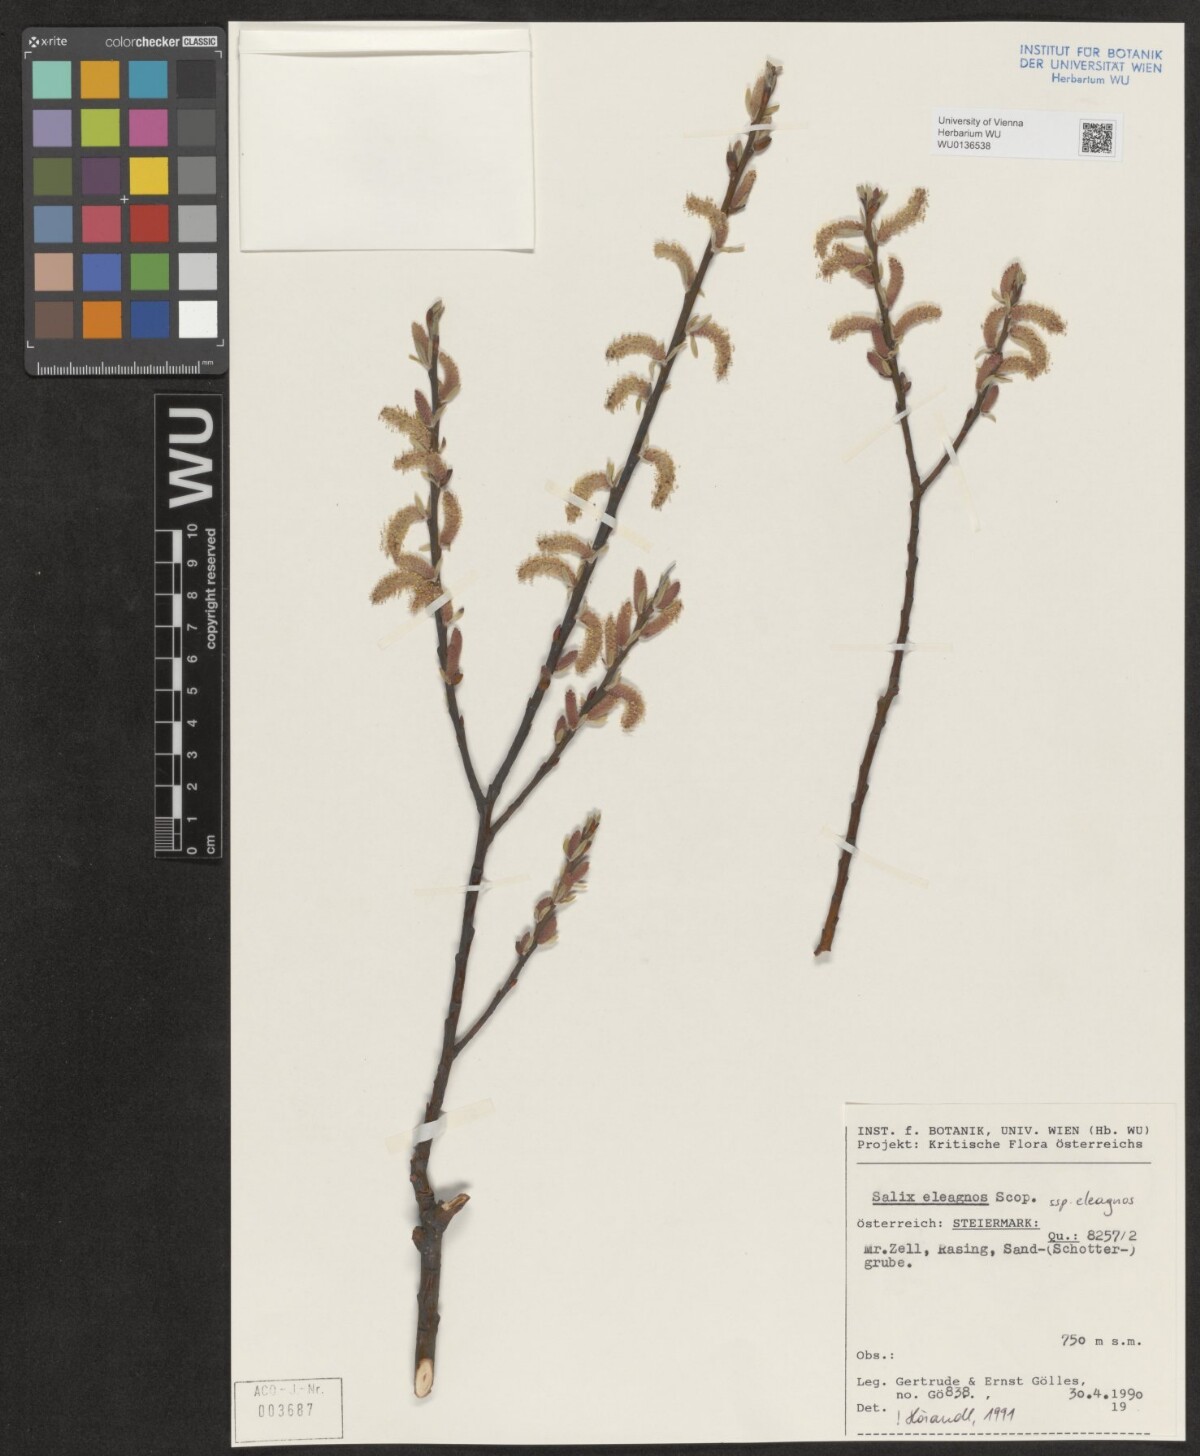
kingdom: Plantae
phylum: Tracheophyta
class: Magnoliopsida
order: Malpighiales
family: Salicaceae
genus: Salix
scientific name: Salix eleagnos
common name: Elaeagnus willow
